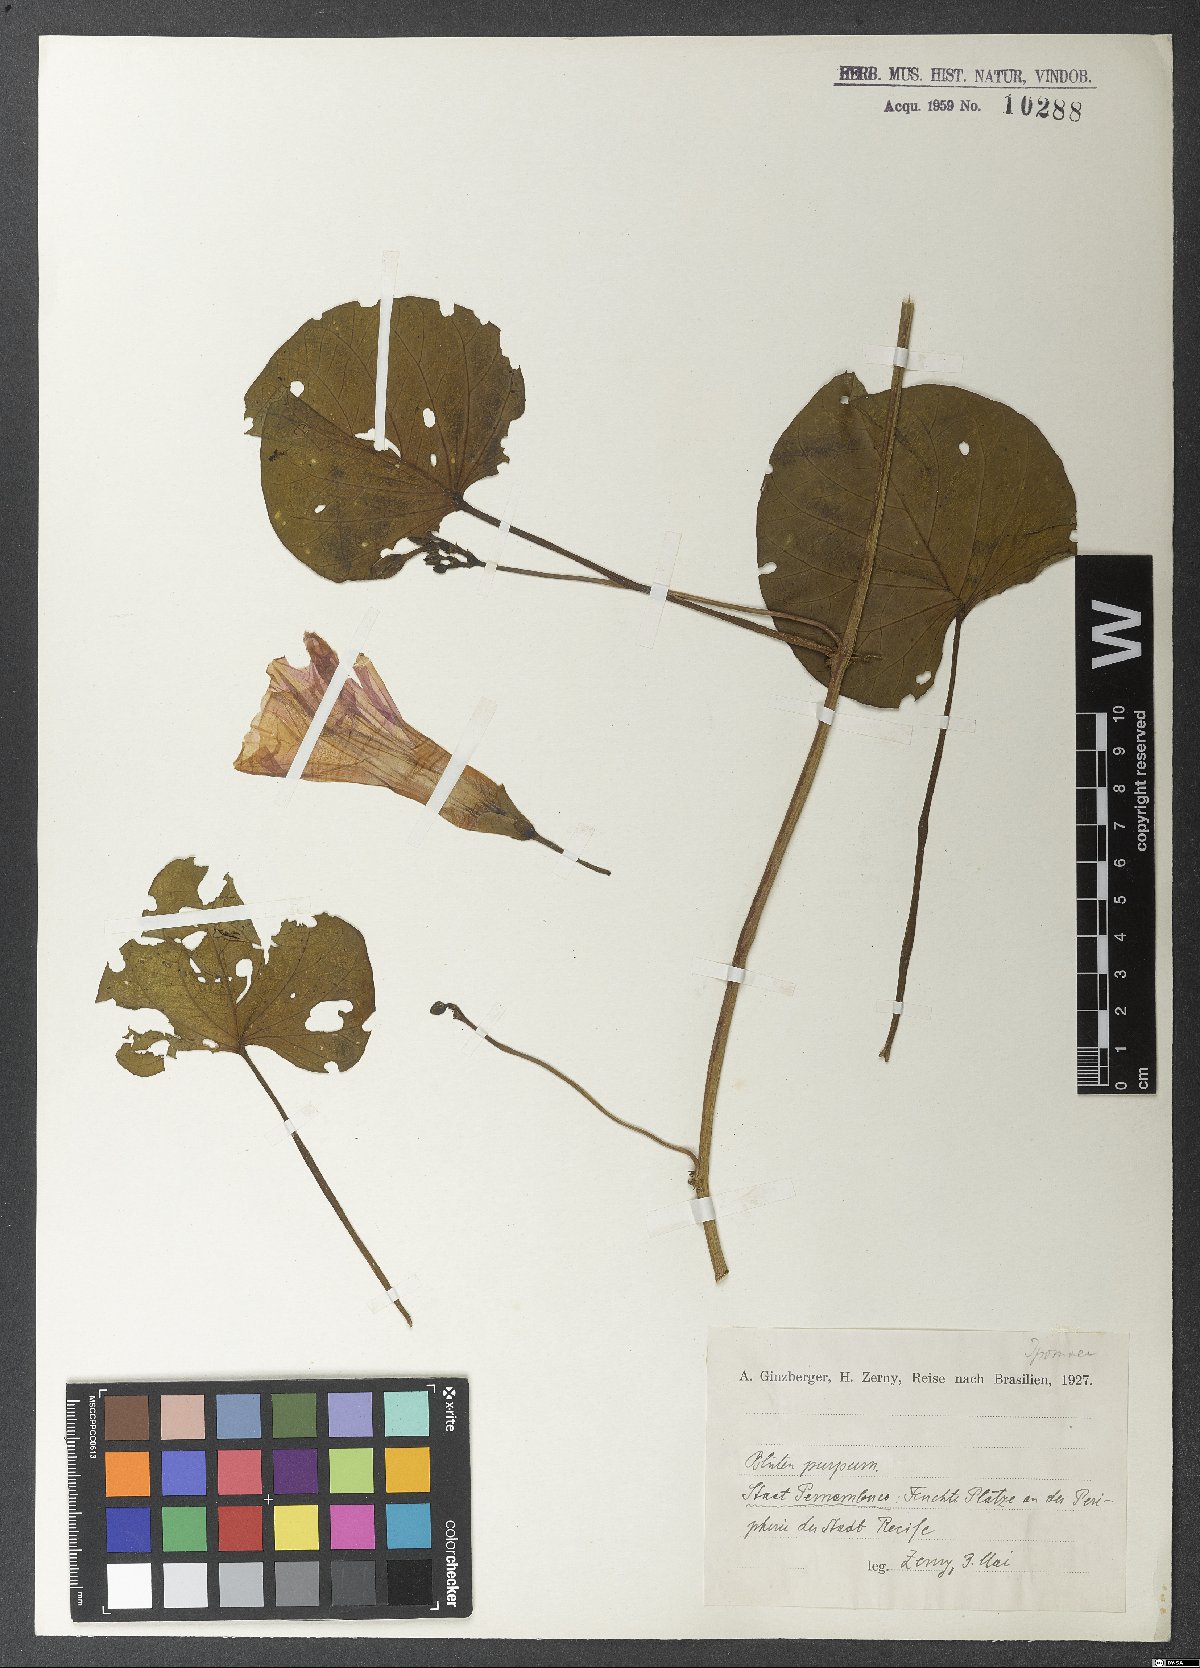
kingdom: Plantae
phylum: Tracheophyta
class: Magnoliopsida
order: Solanales
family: Convolvulaceae
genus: Ipomoea
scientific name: Ipomoea
